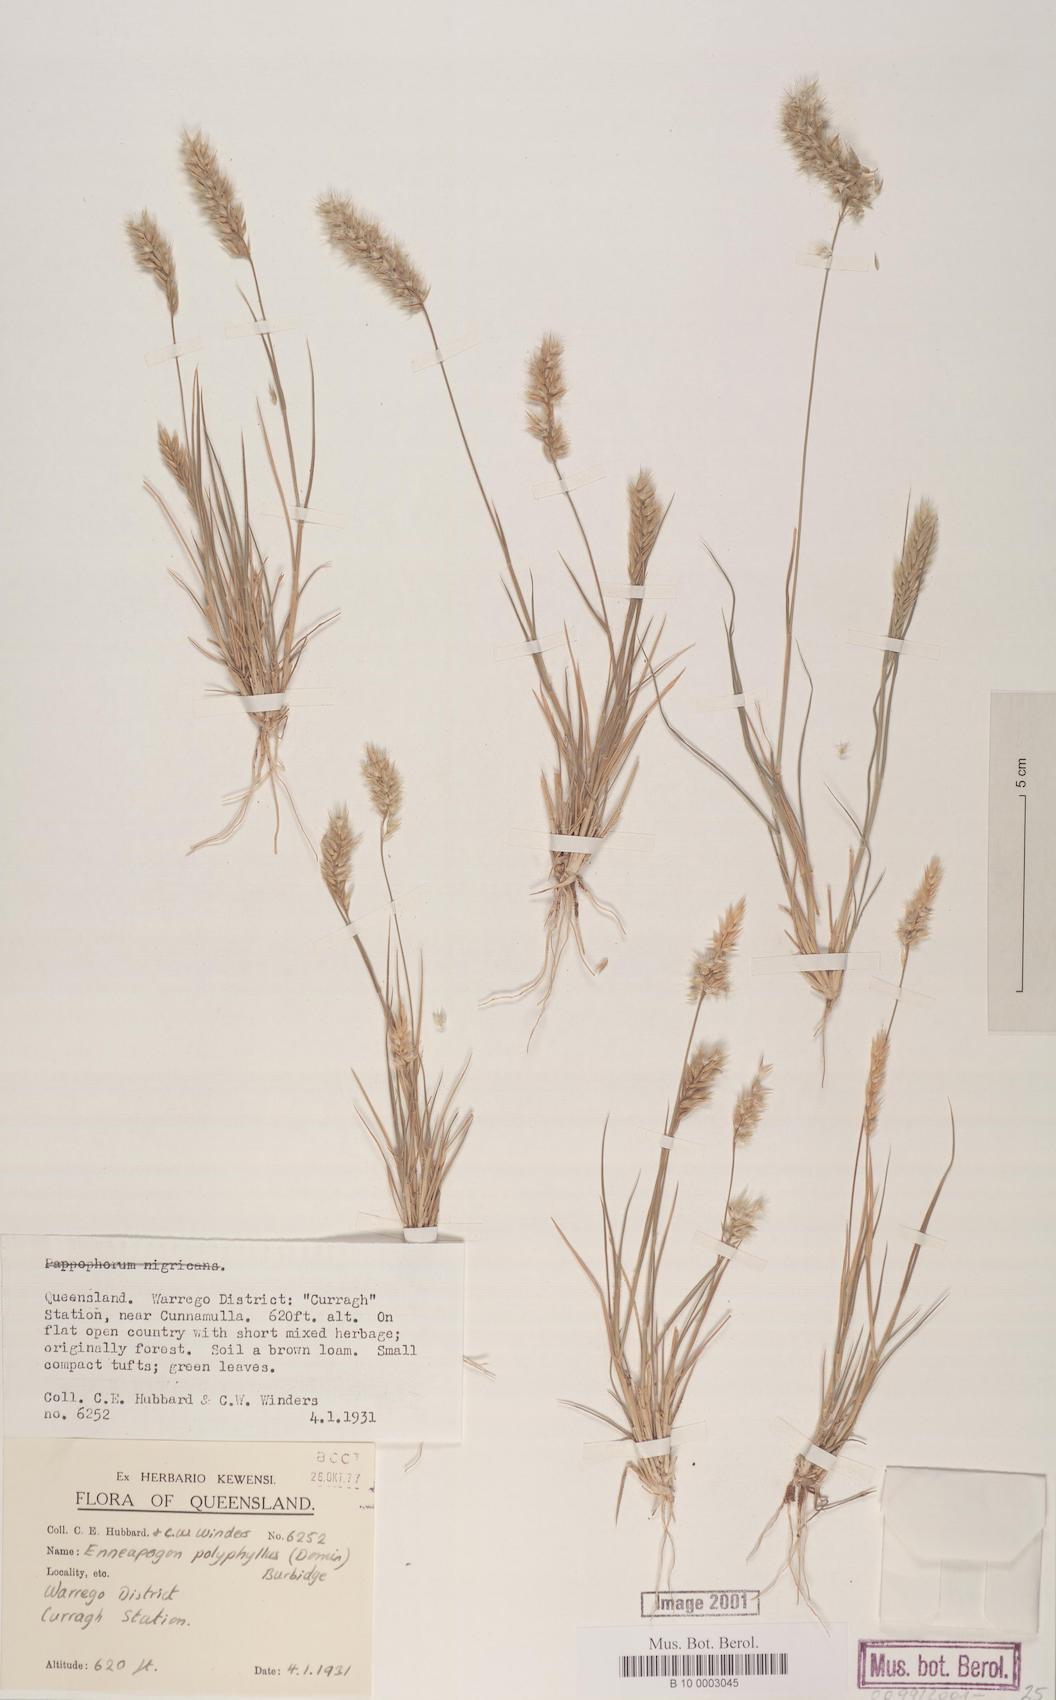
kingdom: Plantae
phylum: Tracheophyta
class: Liliopsida
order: Poales
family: Poaceae
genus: Enneapogon
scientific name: Enneapogon polyphyllus
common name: Leafy nineawn
